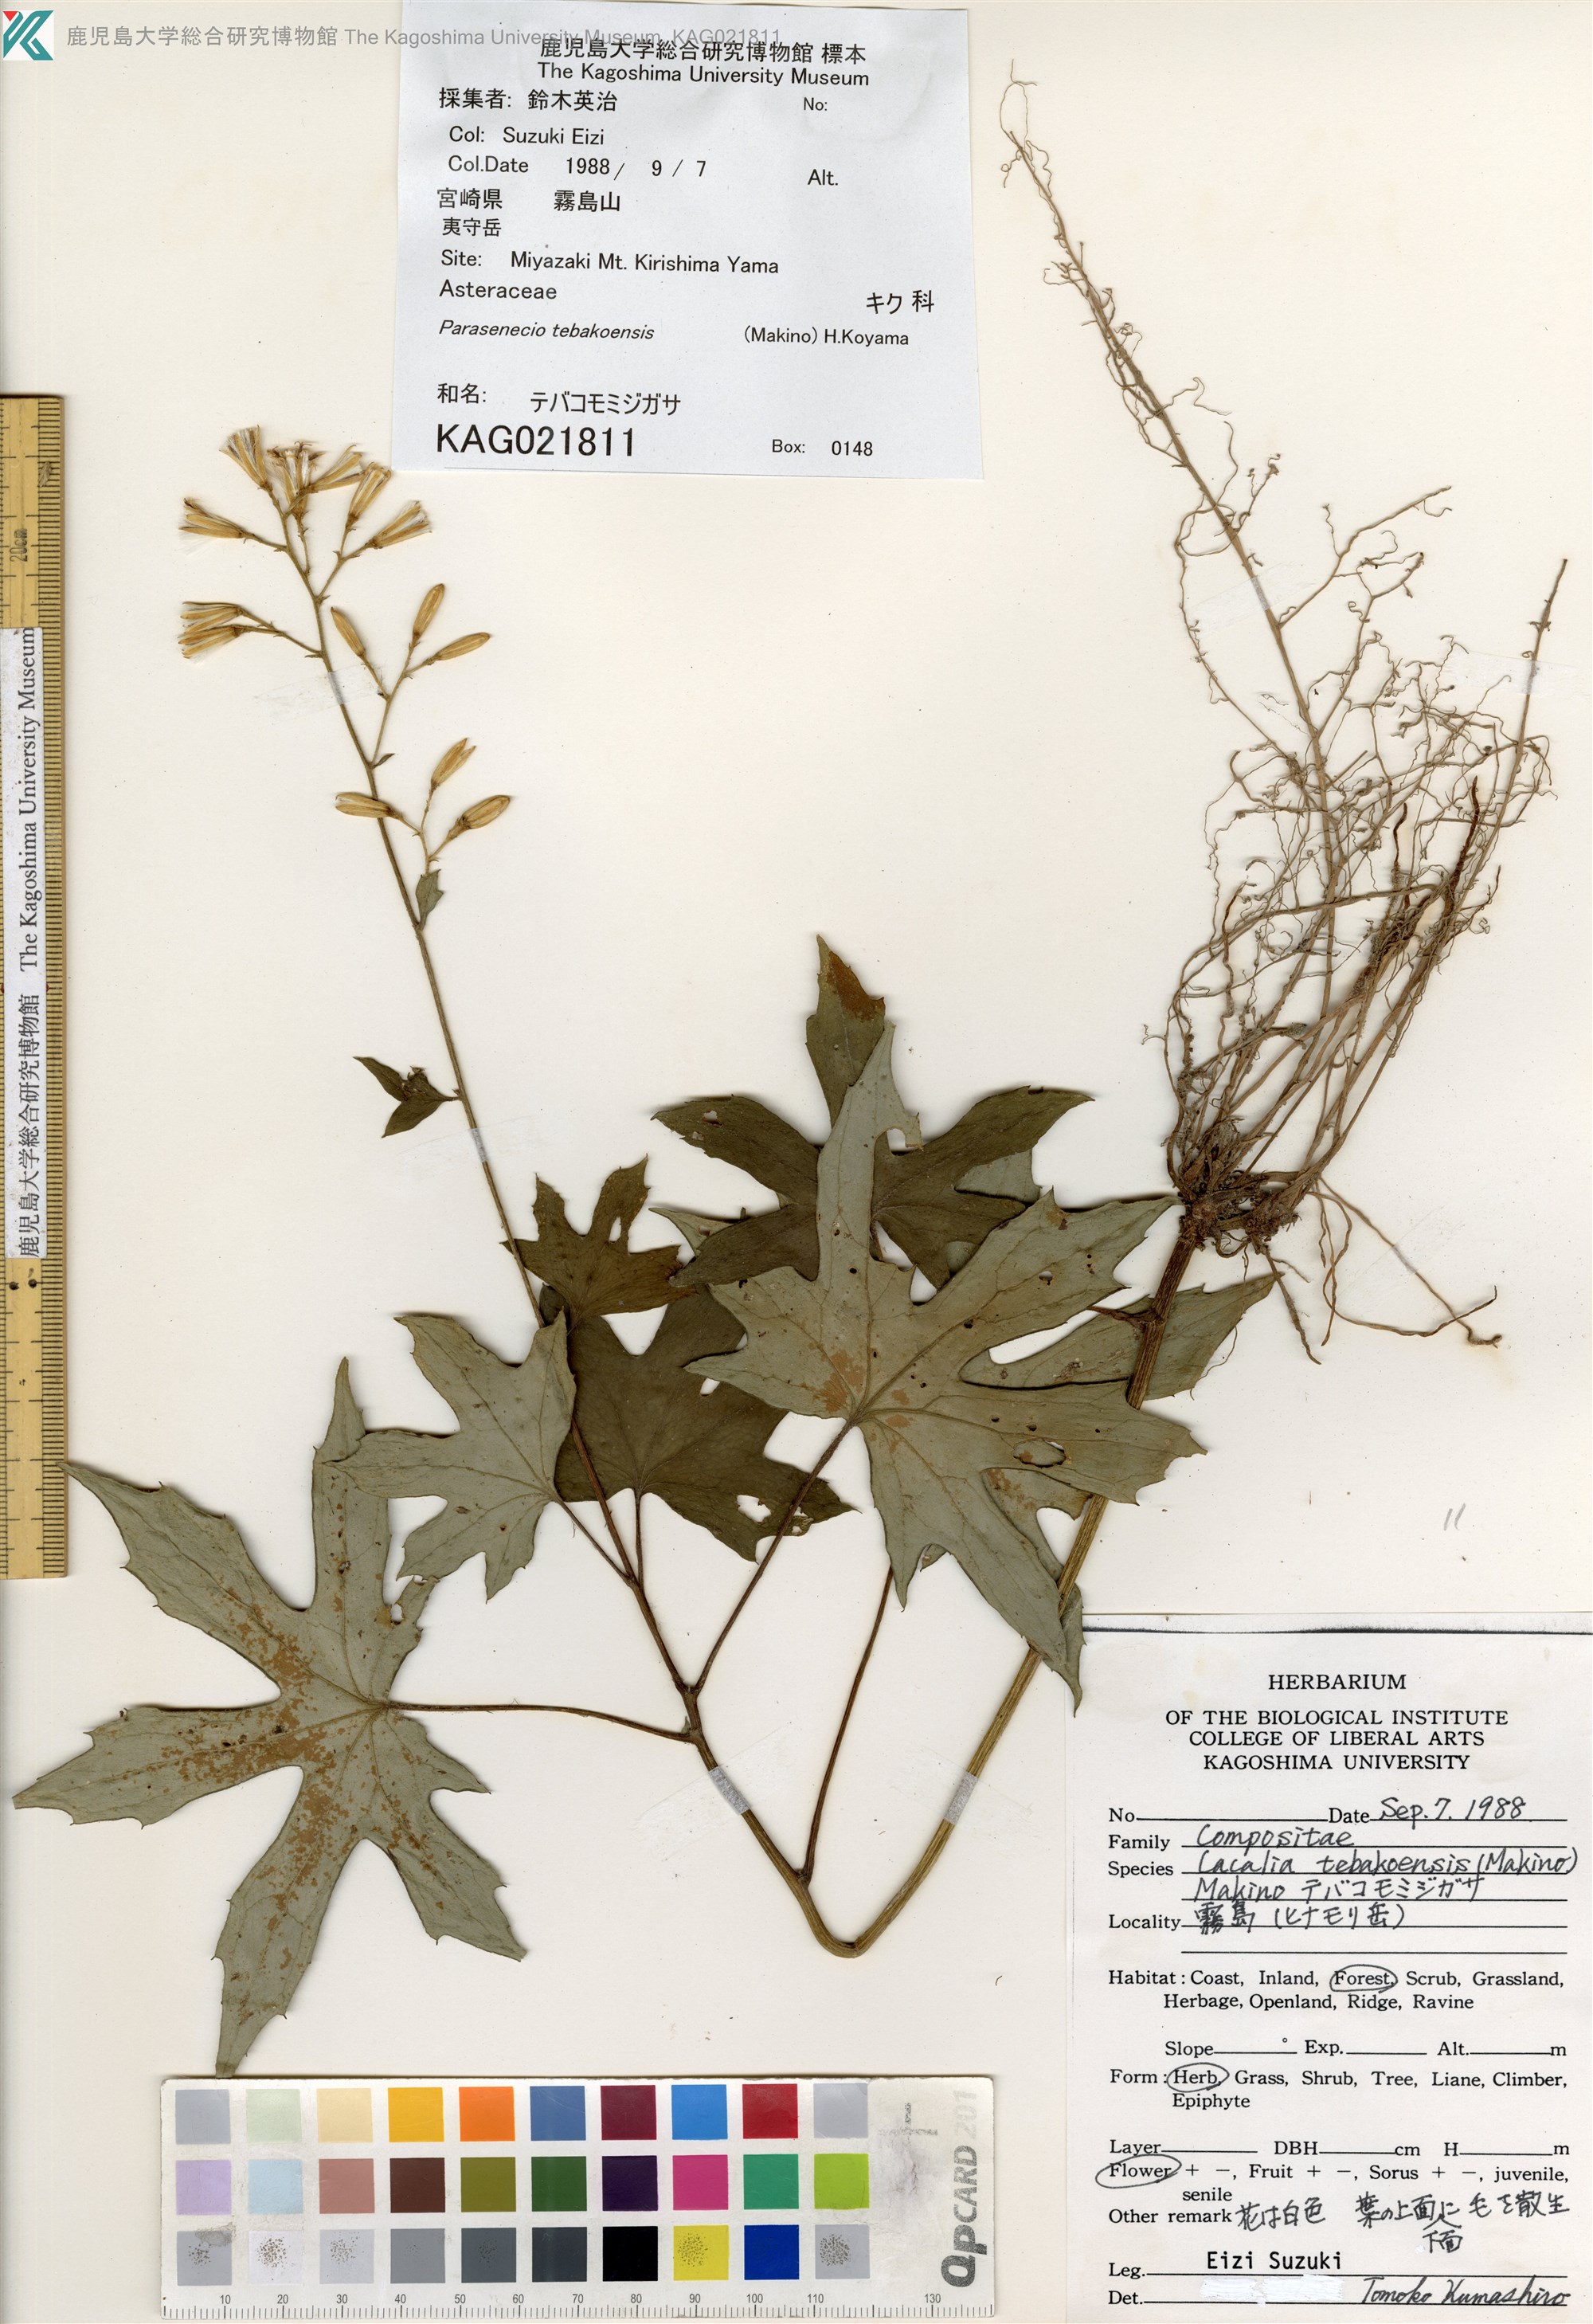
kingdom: Plantae
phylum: Tracheophyta
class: Magnoliopsida
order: Asterales
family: Asteraceae
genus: Japonicalia
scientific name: Japonicalia tebakoensis
